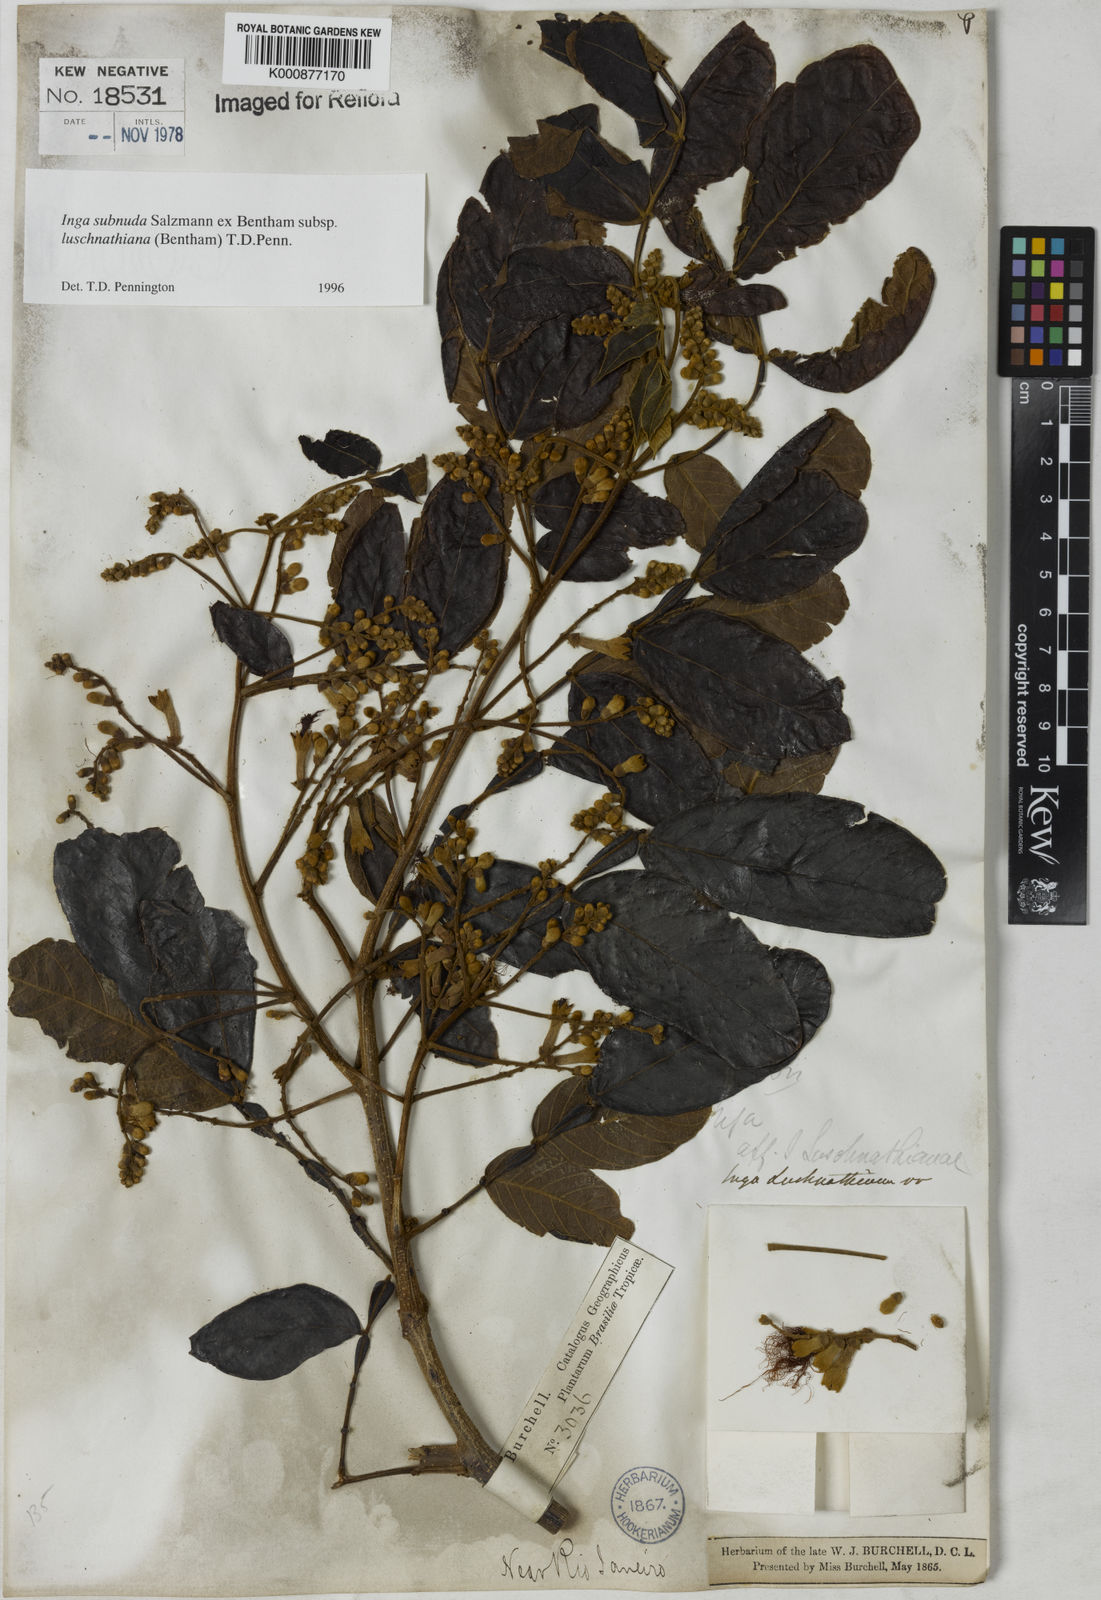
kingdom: Plantae
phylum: Tracheophyta
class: Magnoliopsida
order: Fabales
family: Fabaceae
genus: Inga
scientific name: Inga subnuda
